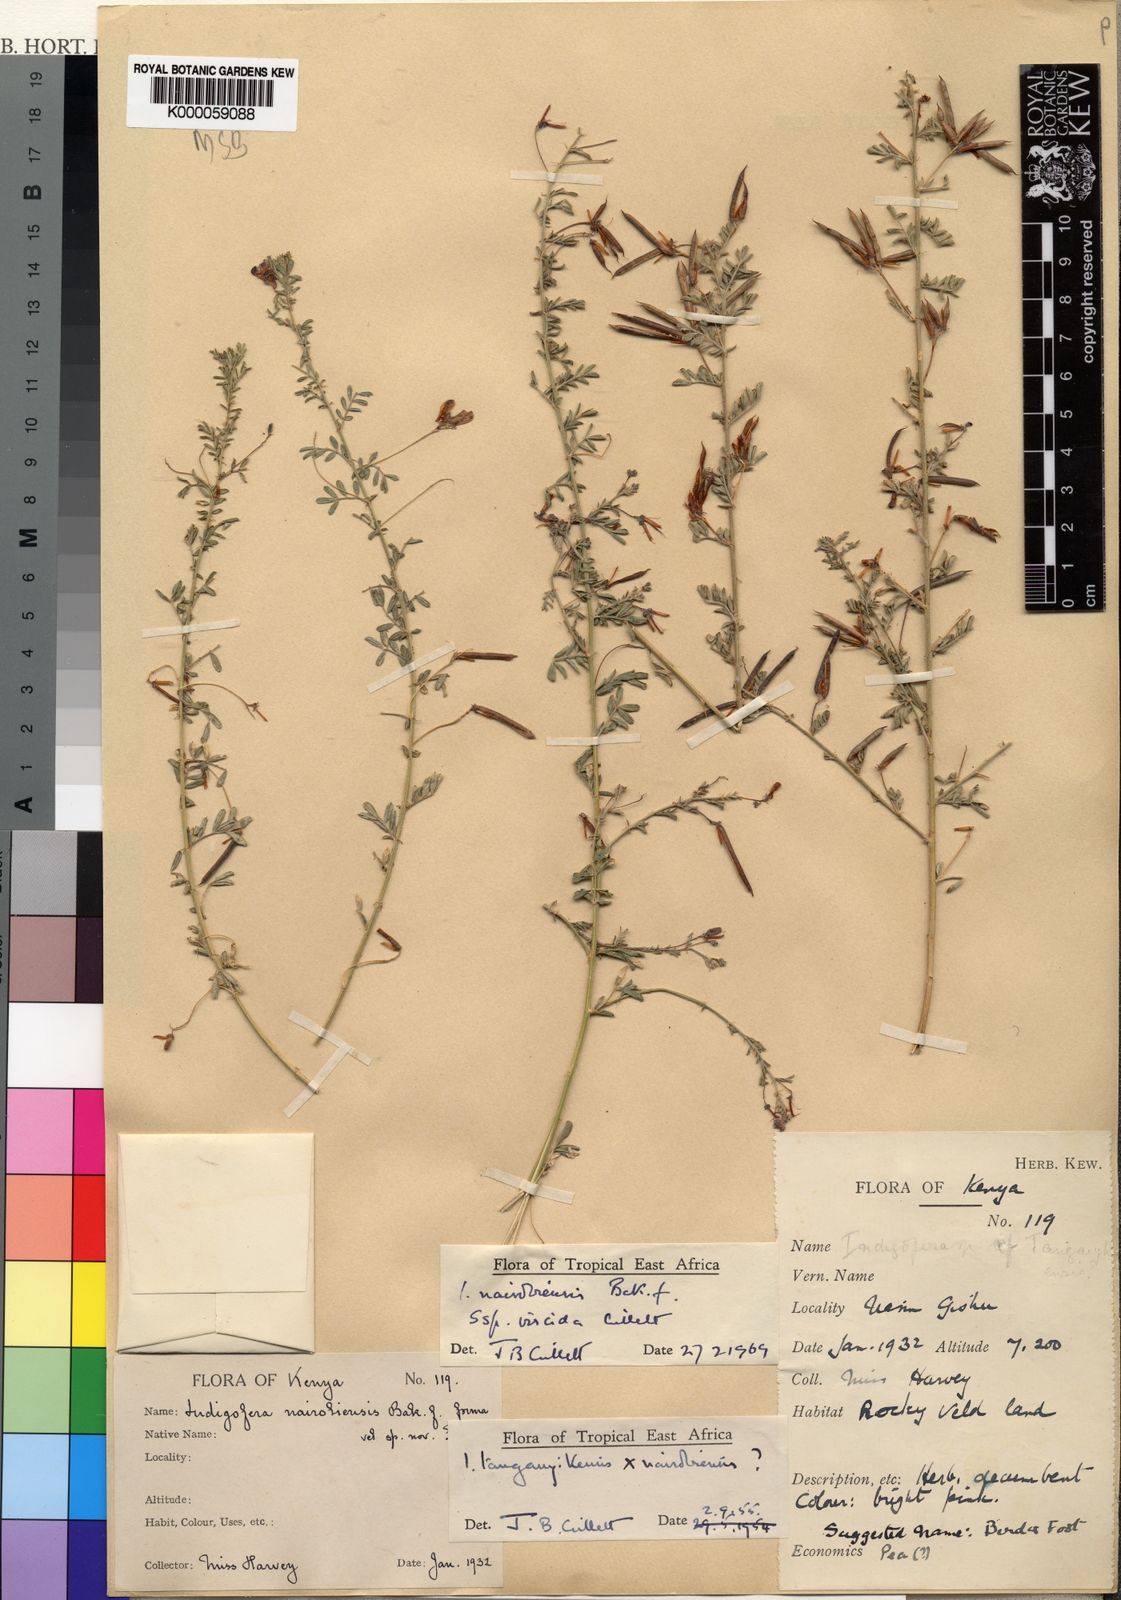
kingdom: Plantae
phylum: Tracheophyta
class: Magnoliopsida
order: Fabales
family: Fabaceae
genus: Indigofera
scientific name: Indigofera nairobiensis
